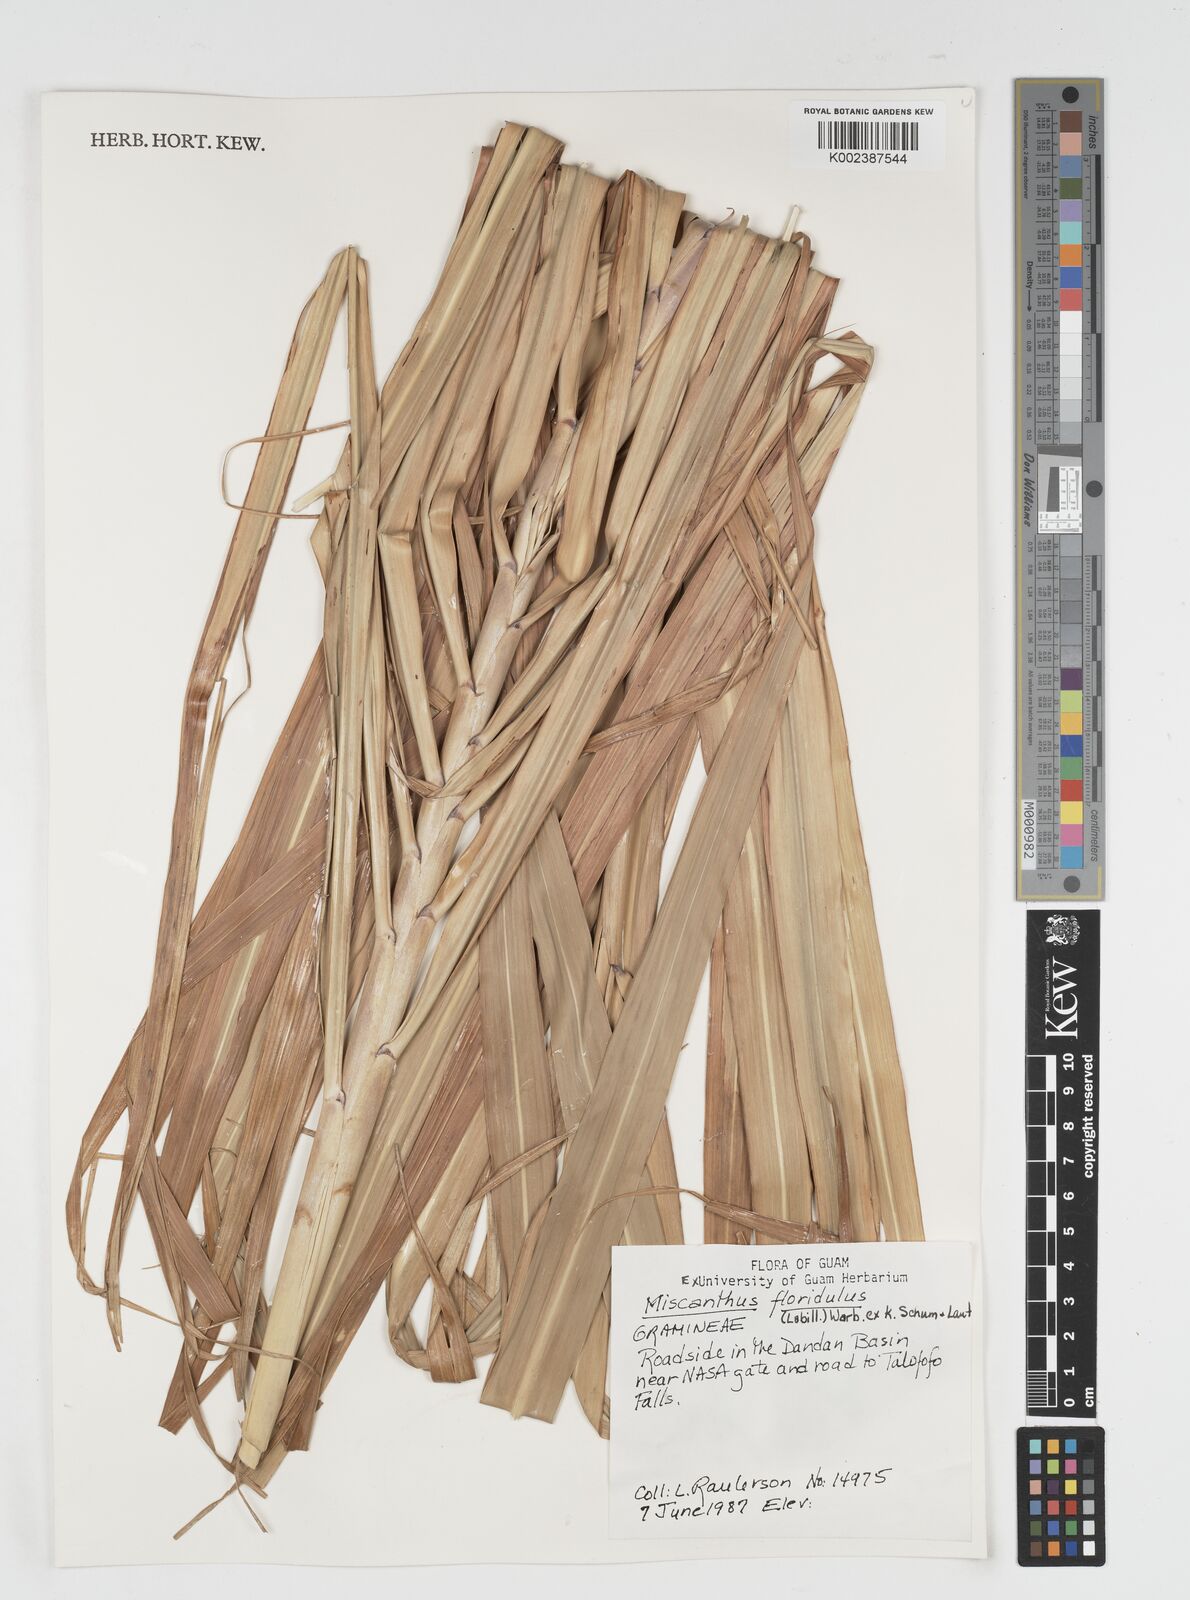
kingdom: Plantae
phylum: Tracheophyta
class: Liliopsida
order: Poales
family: Poaceae
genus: Miscanthus
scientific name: Miscanthus floridulus
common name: Pacific island silvergrass
